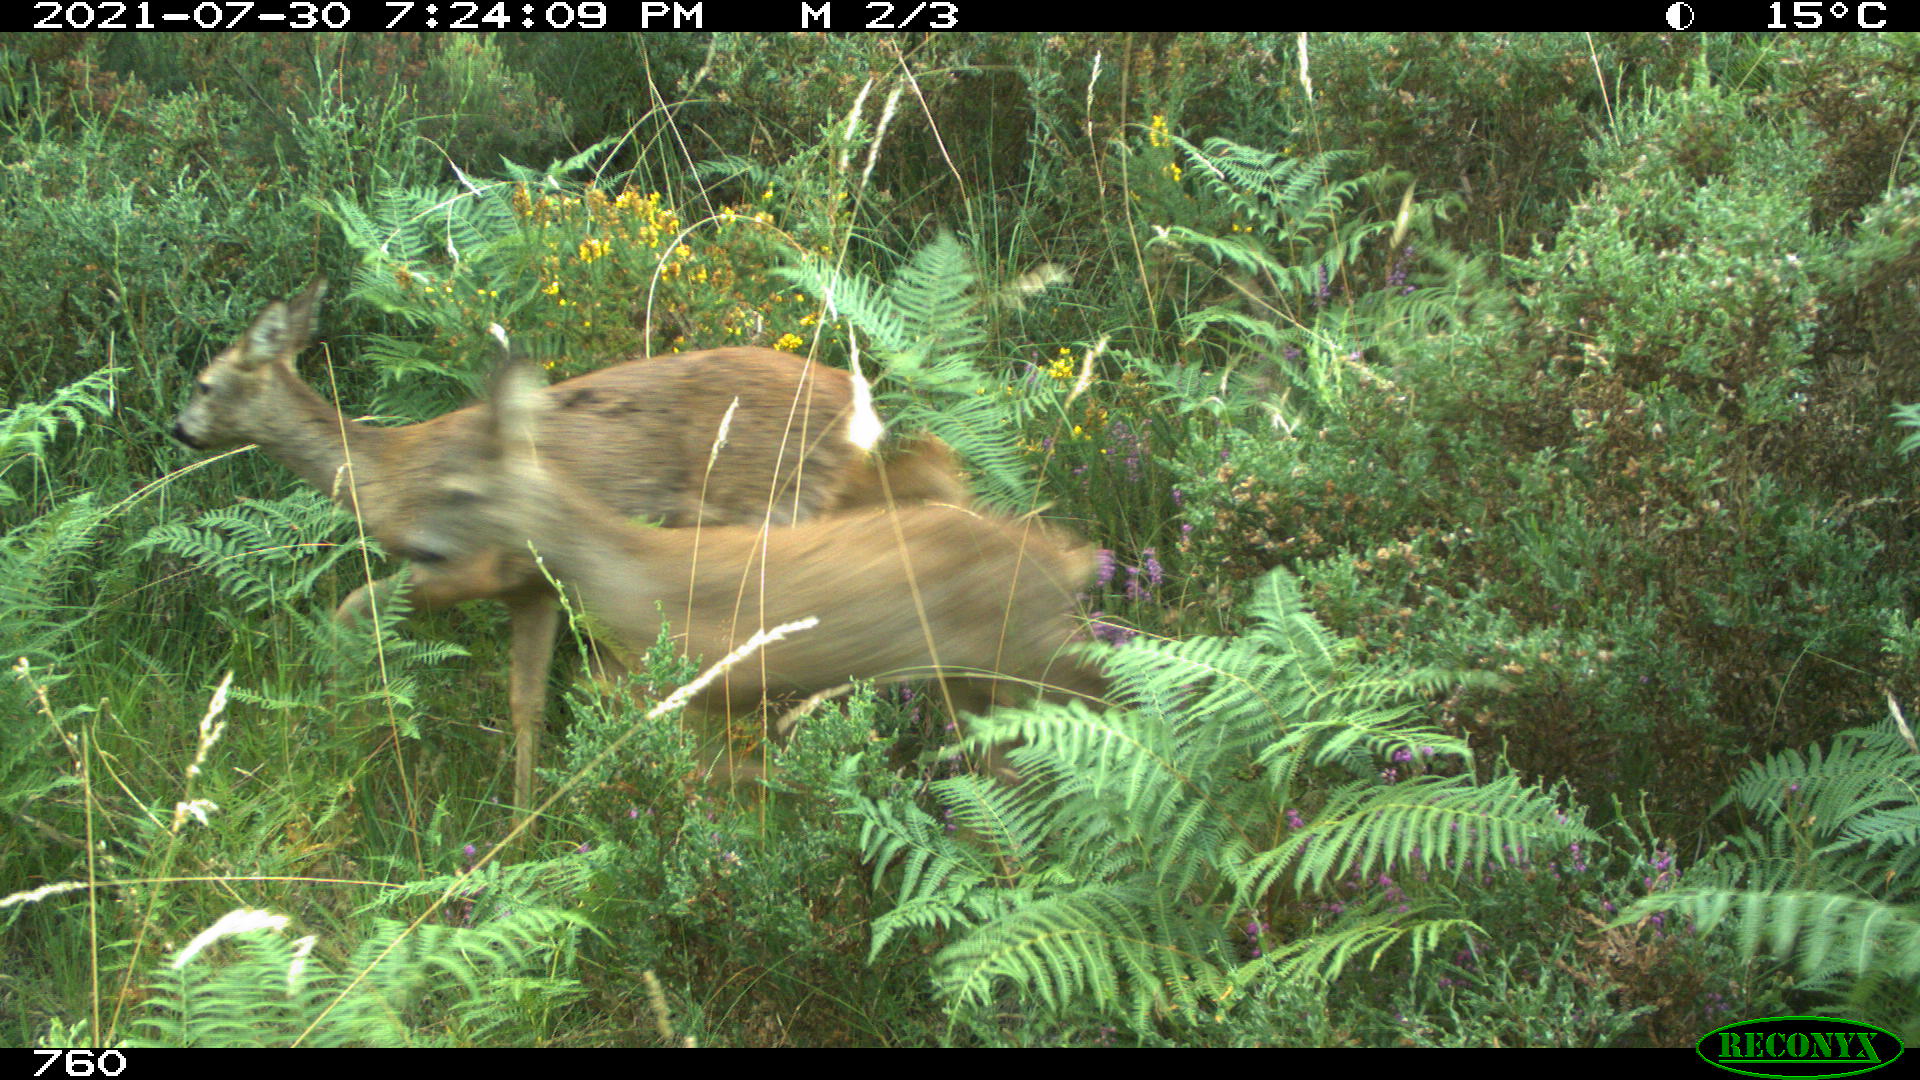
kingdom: Animalia
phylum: Chordata
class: Mammalia
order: Artiodactyla
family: Cervidae
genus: Capreolus
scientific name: Capreolus capreolus
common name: Western roe deer
